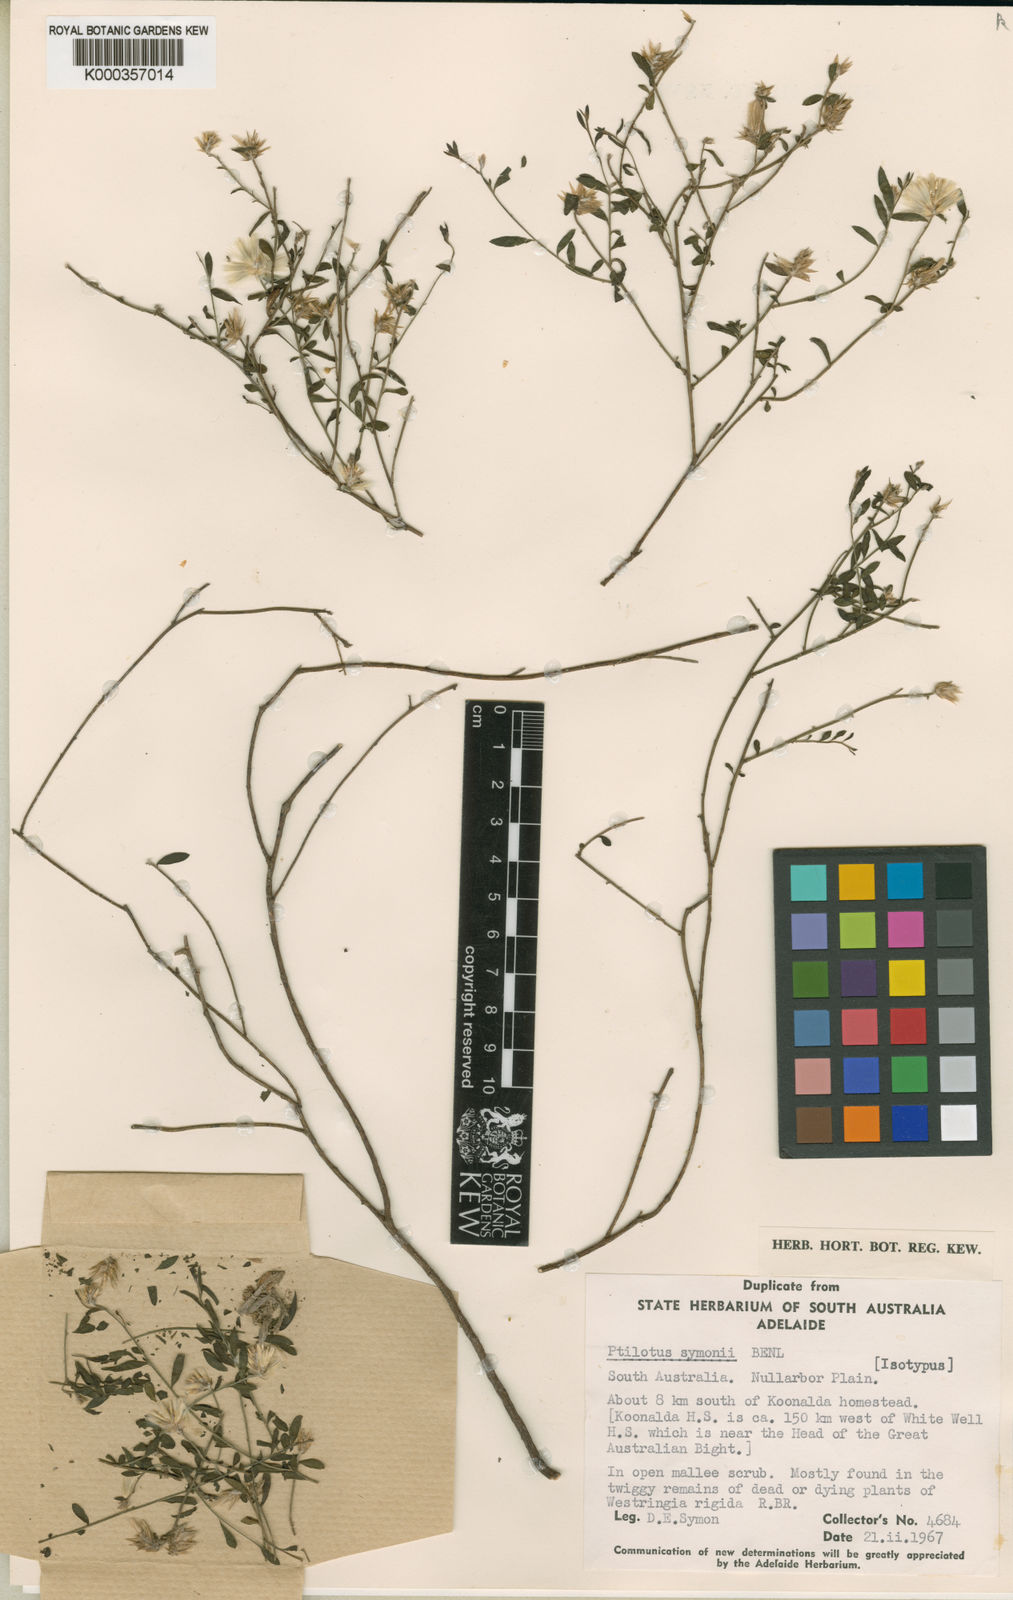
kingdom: Plantae
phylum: Tracheophyta
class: Magnoliopsida
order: Caryophyllales
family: Amaranthaceae
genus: Ptilotus
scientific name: Ptilotus symonii
